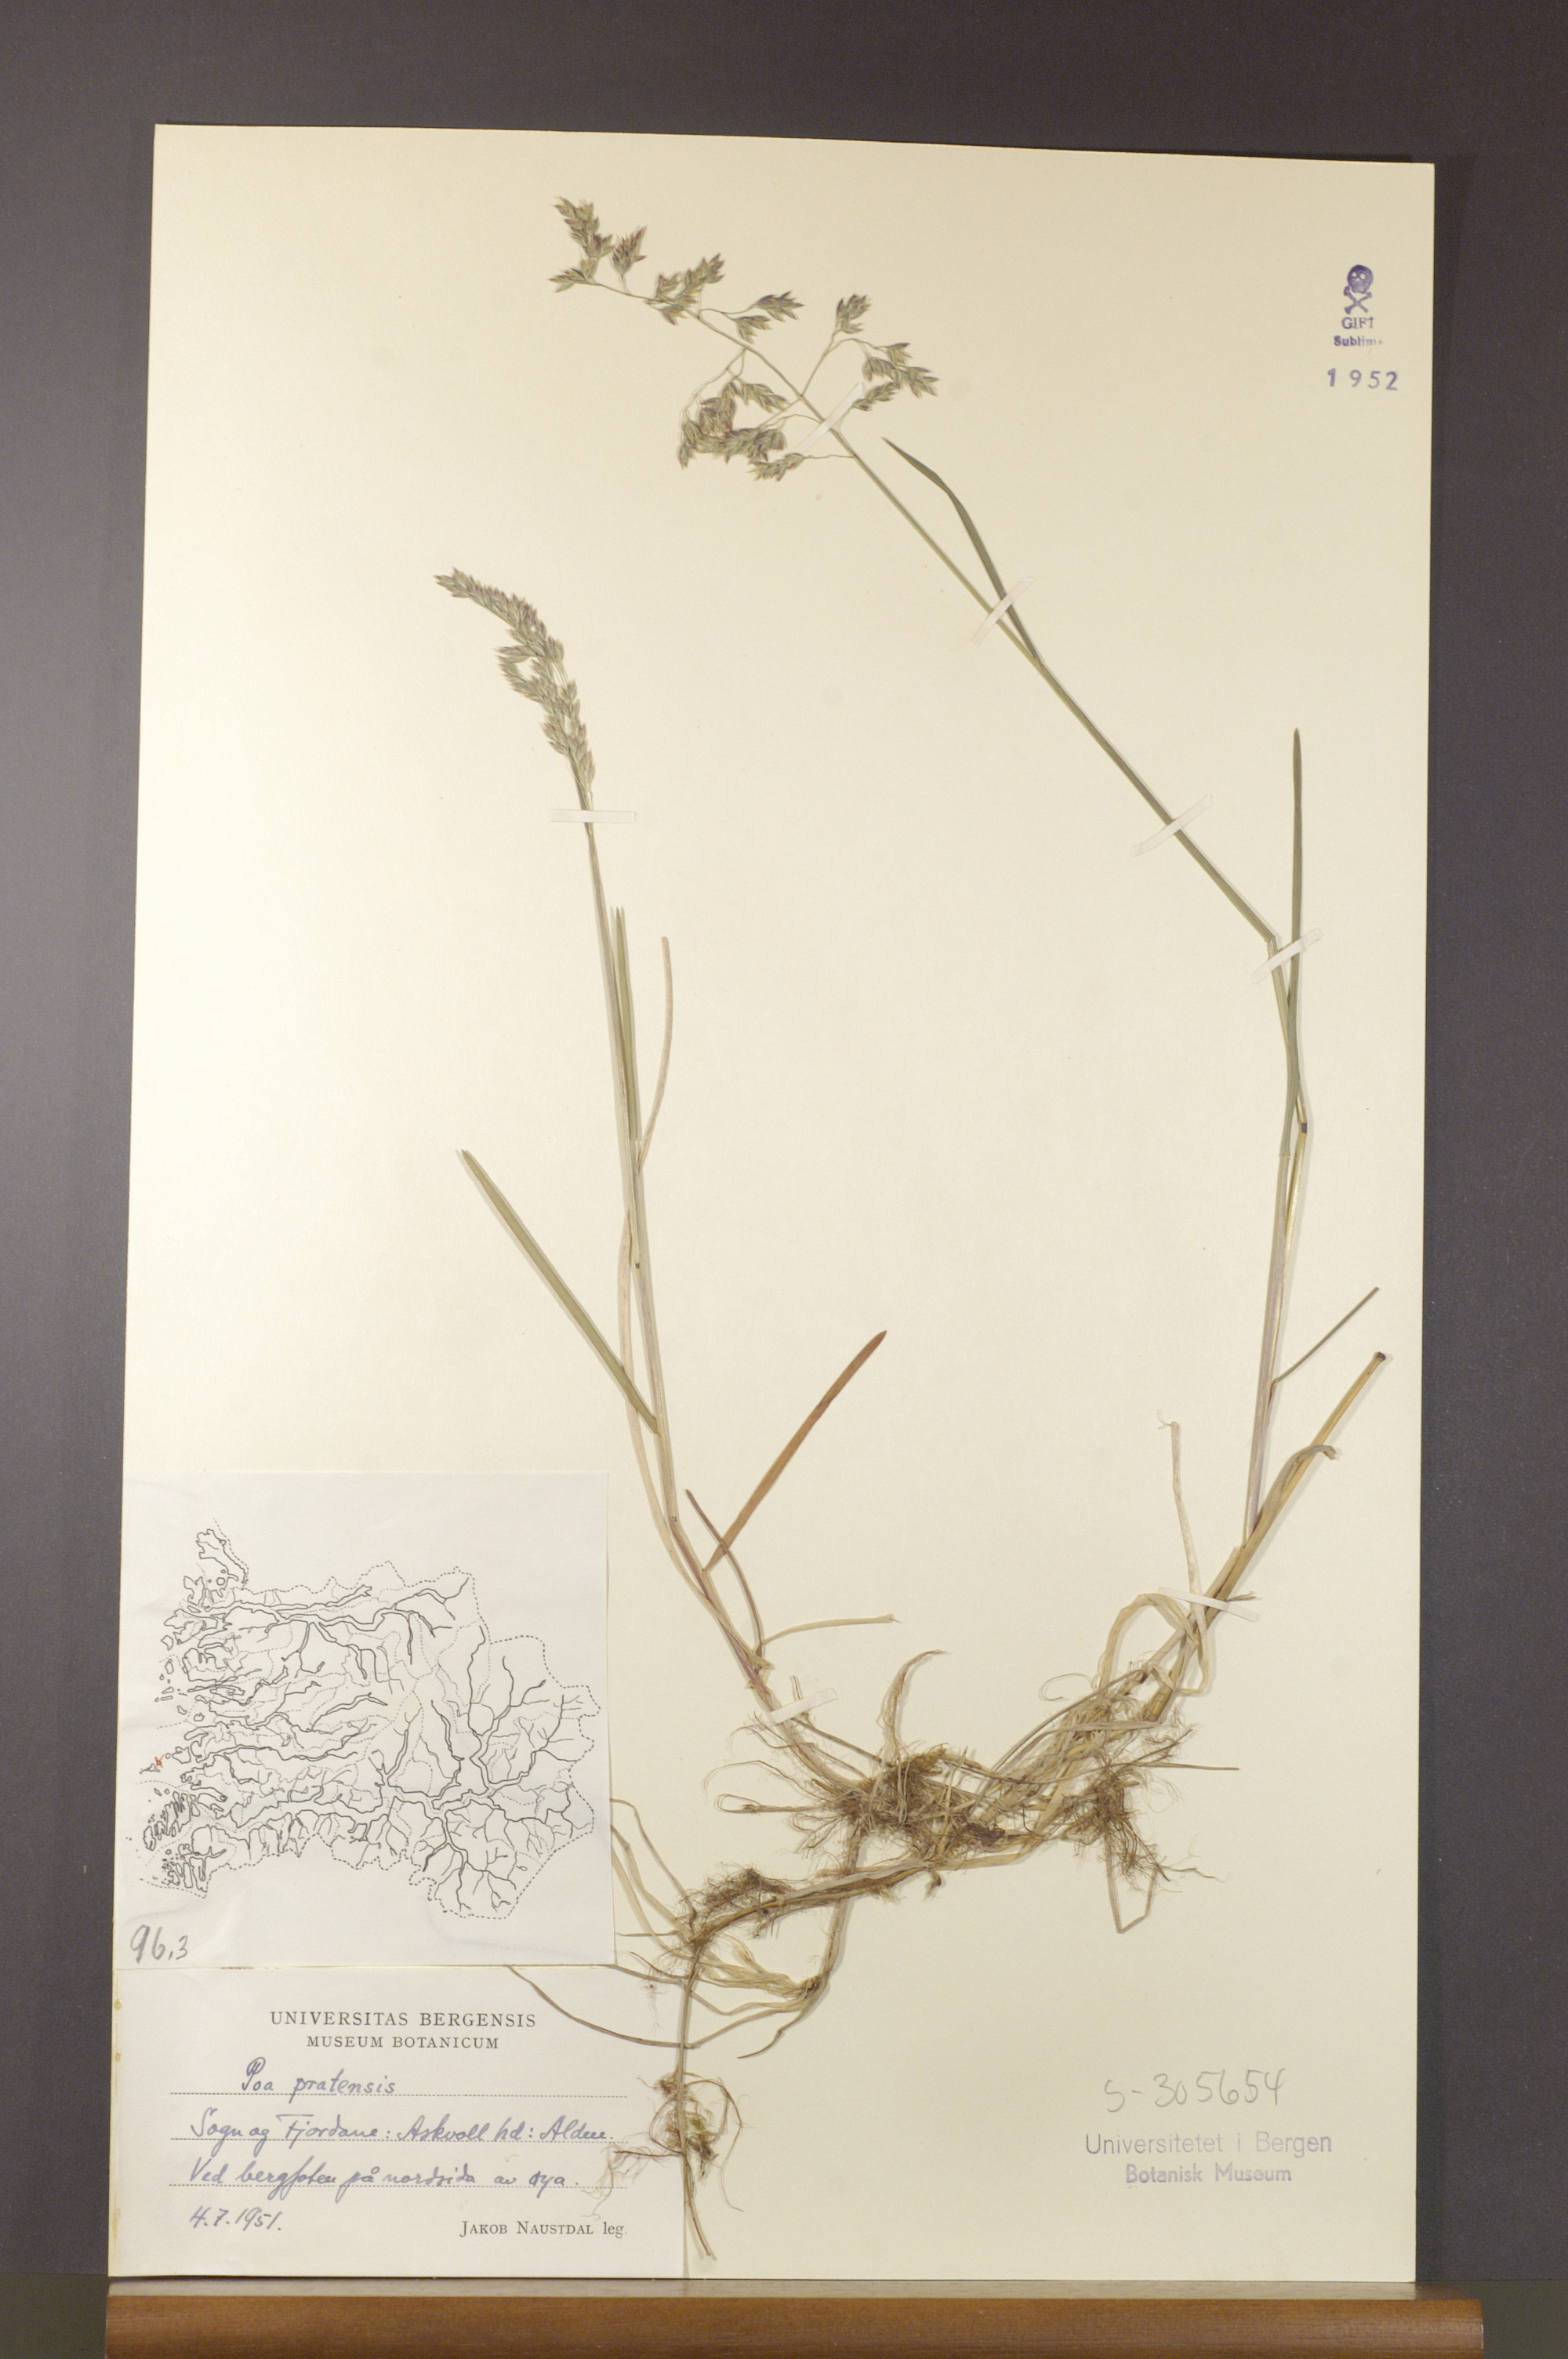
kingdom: Plantae
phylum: Tracheophyta
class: Liliopsida
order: Poales
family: Poaceae
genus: Poa
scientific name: Poa pratensis
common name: Kentucky bluegrass
